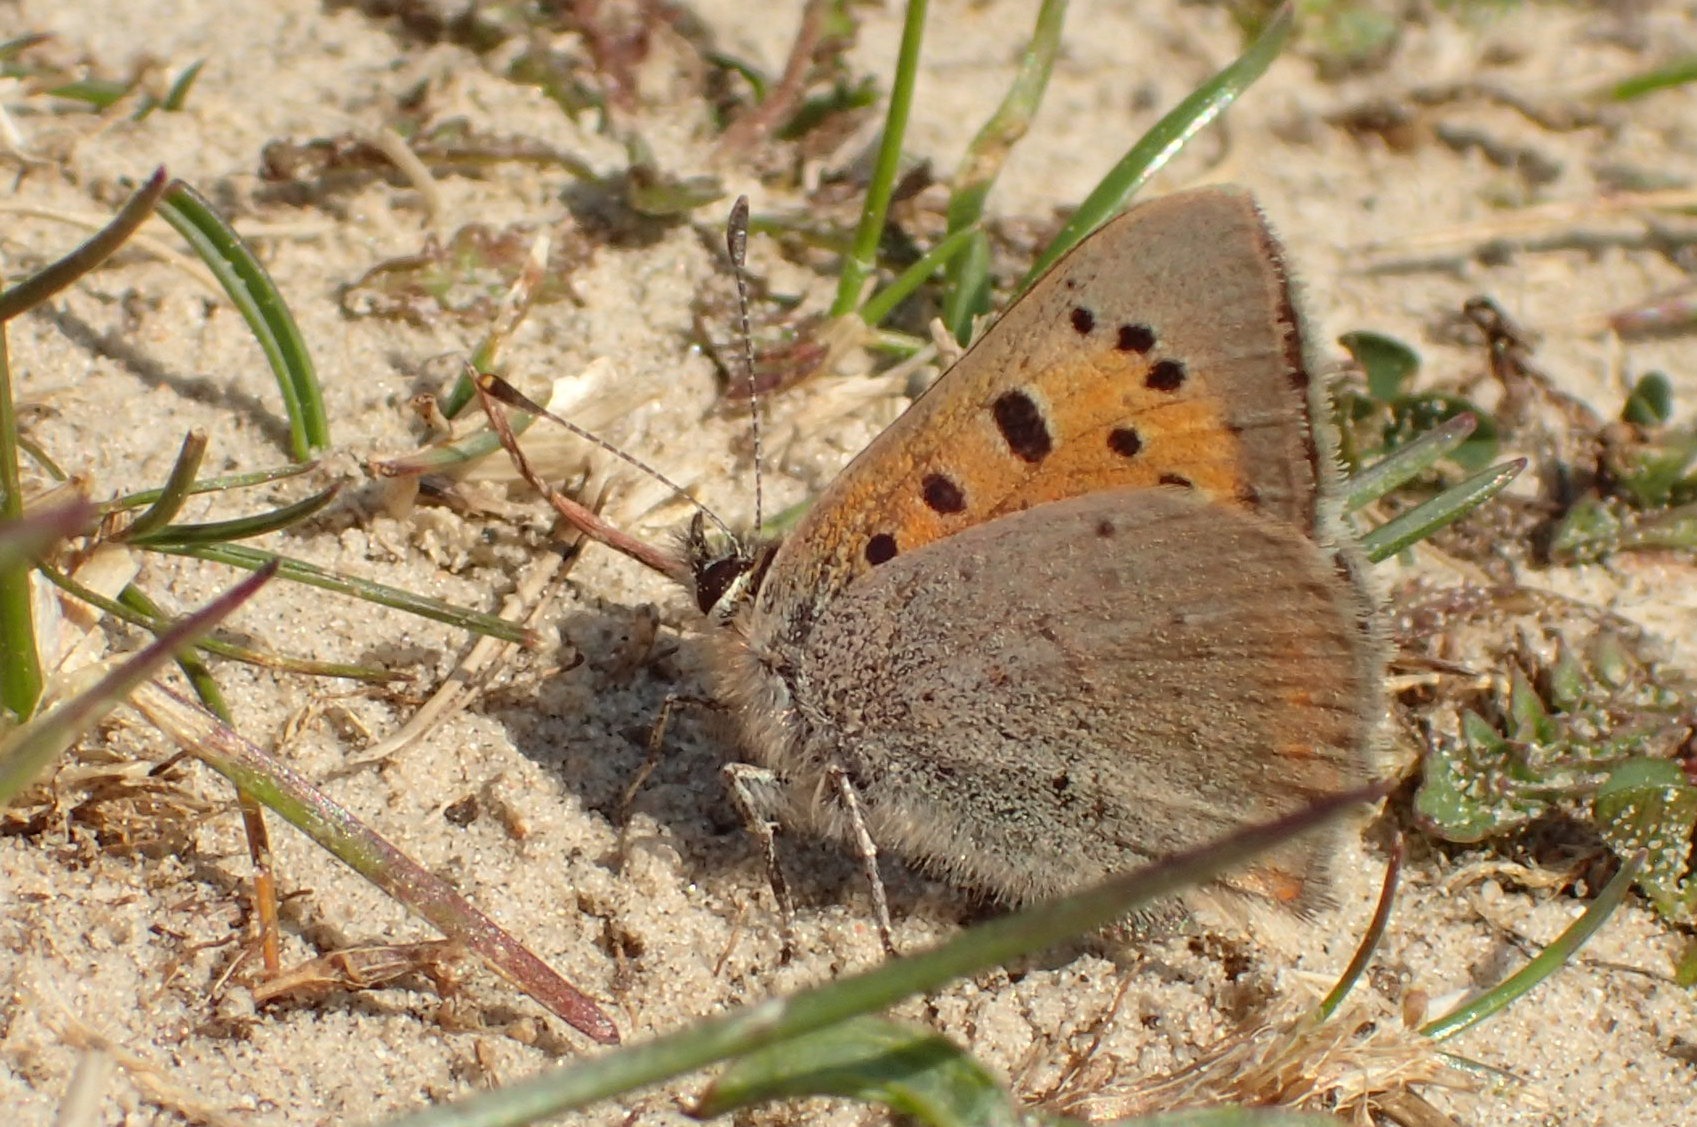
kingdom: Animalia
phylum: Arthropoda
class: Insecta
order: Lepidoptera
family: Lycaenidae
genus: Lycaena
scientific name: Lycaena phlaeas
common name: Lille ildfugl
